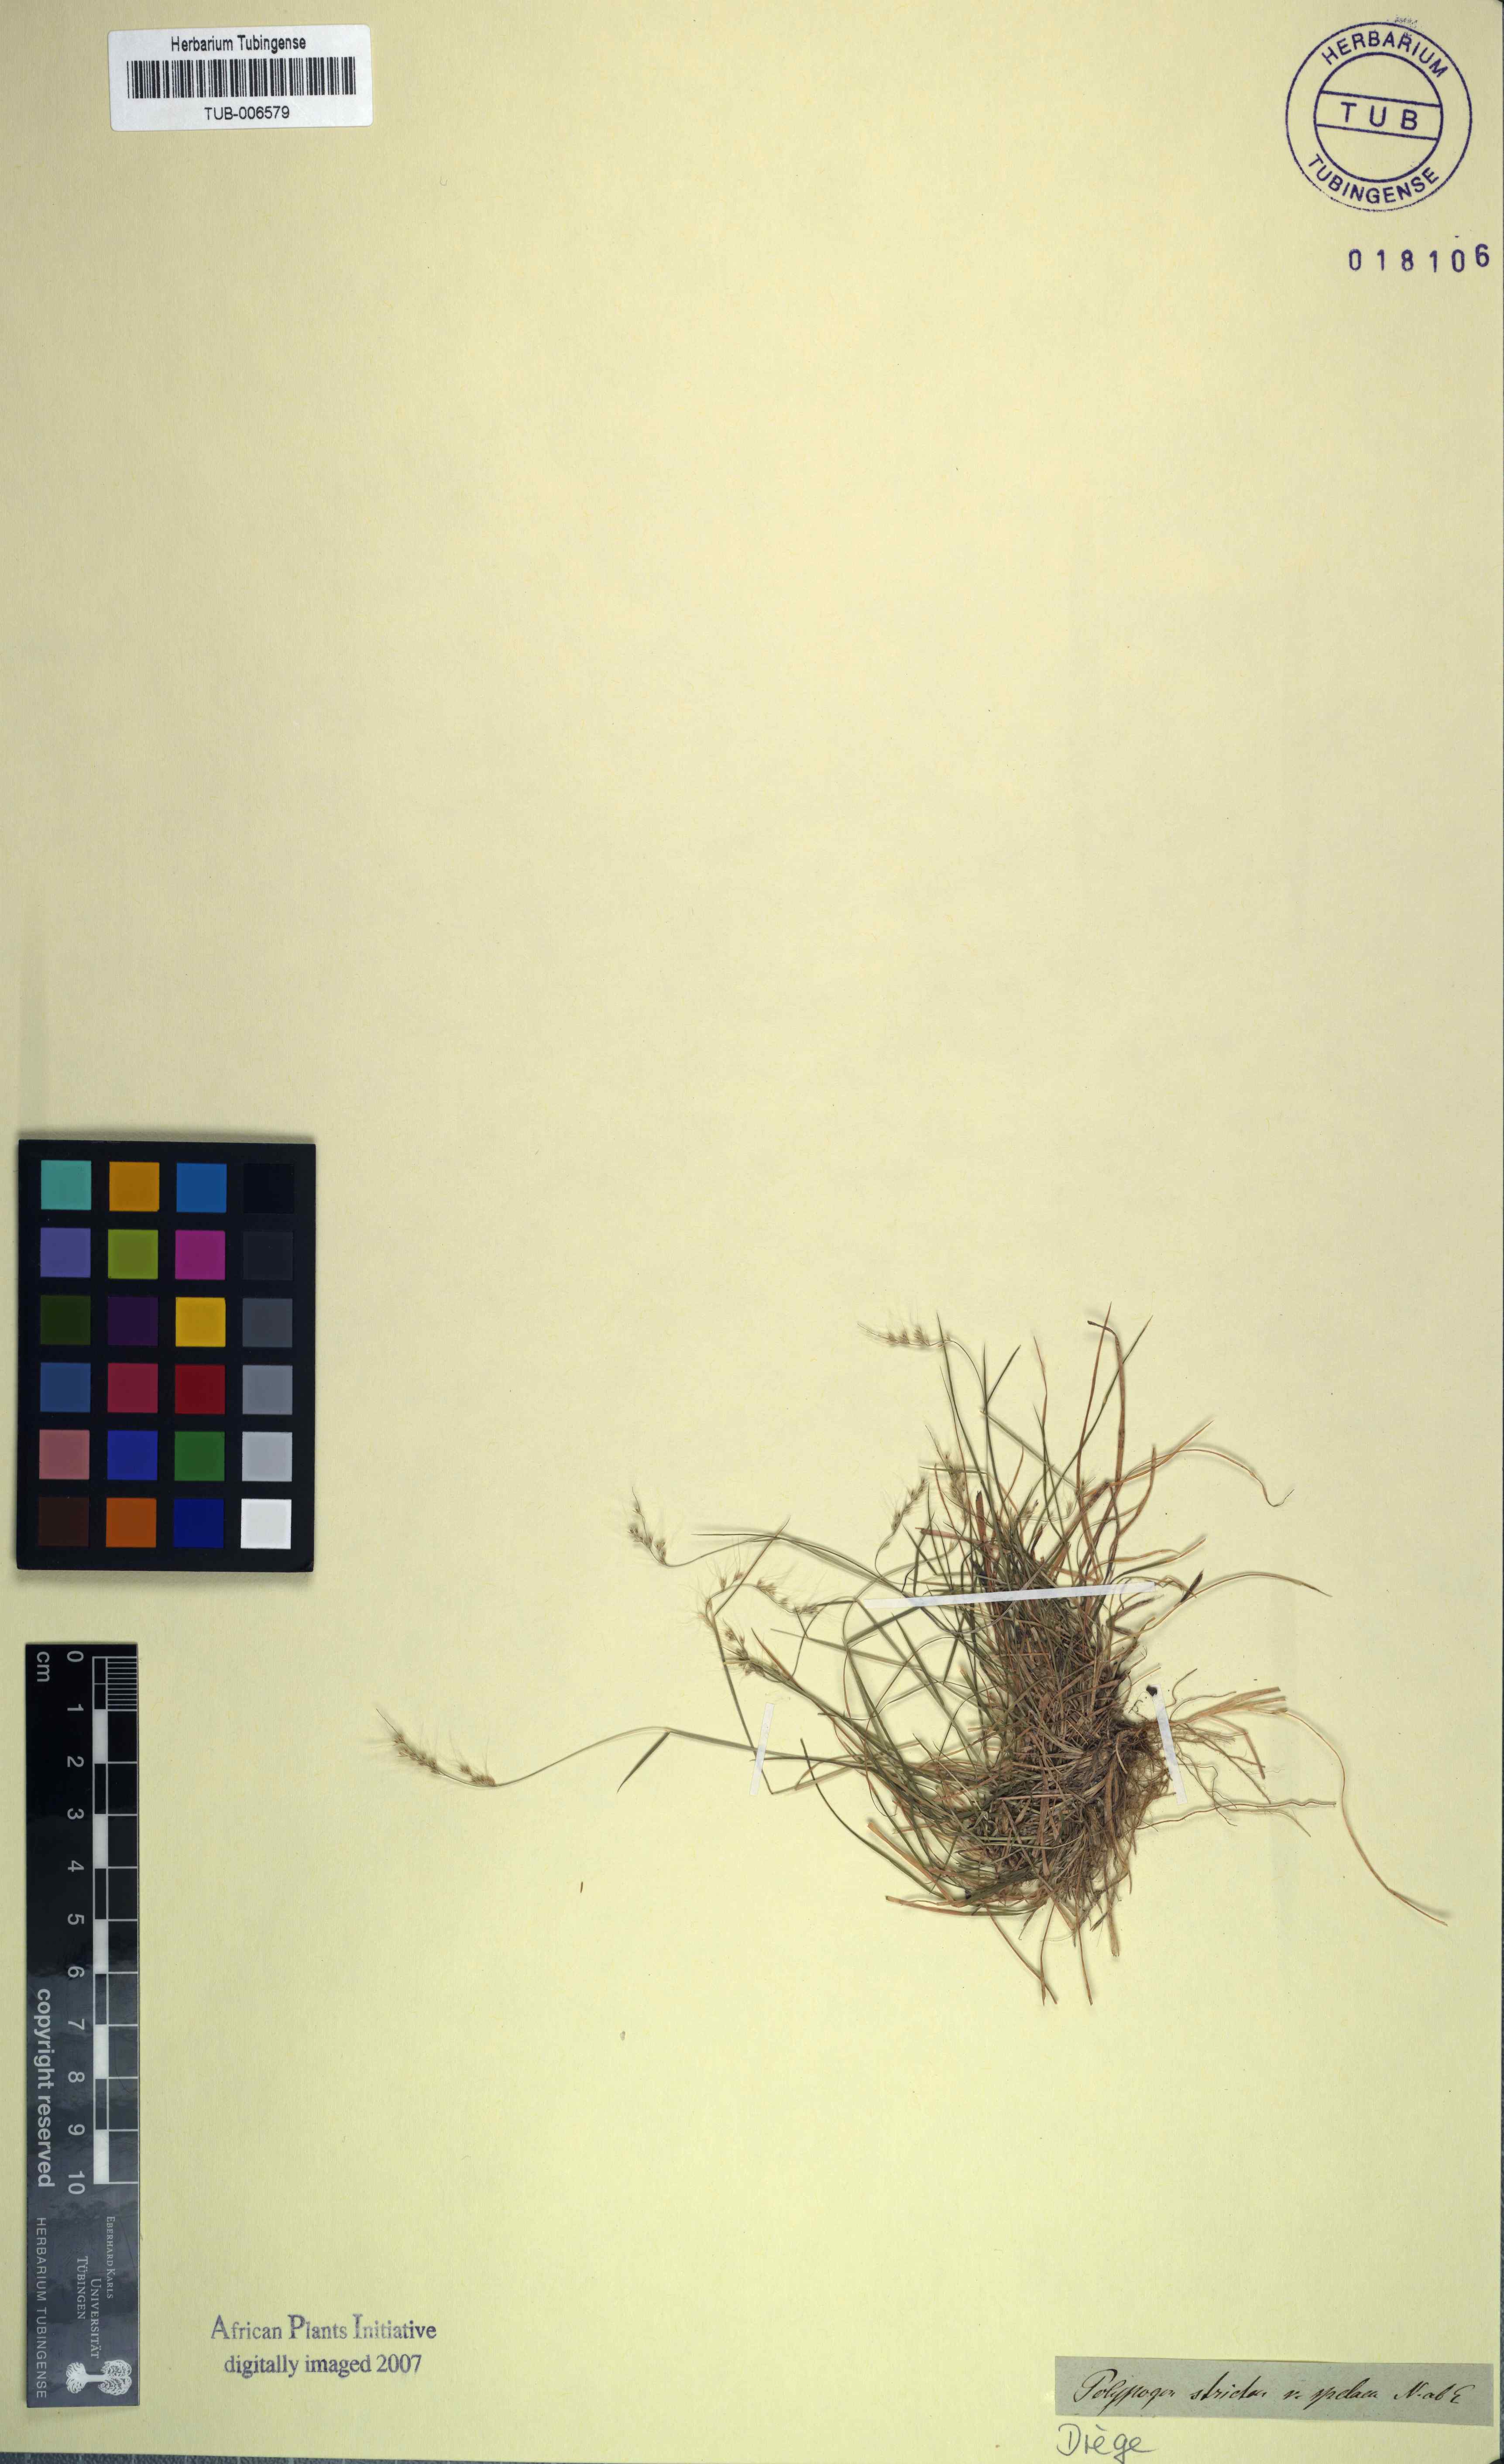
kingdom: Plantae
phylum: Tracheophyta
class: Liliopsida
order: Poales
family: Poaceae
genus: Polypogon
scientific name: Polypogon tenuis
